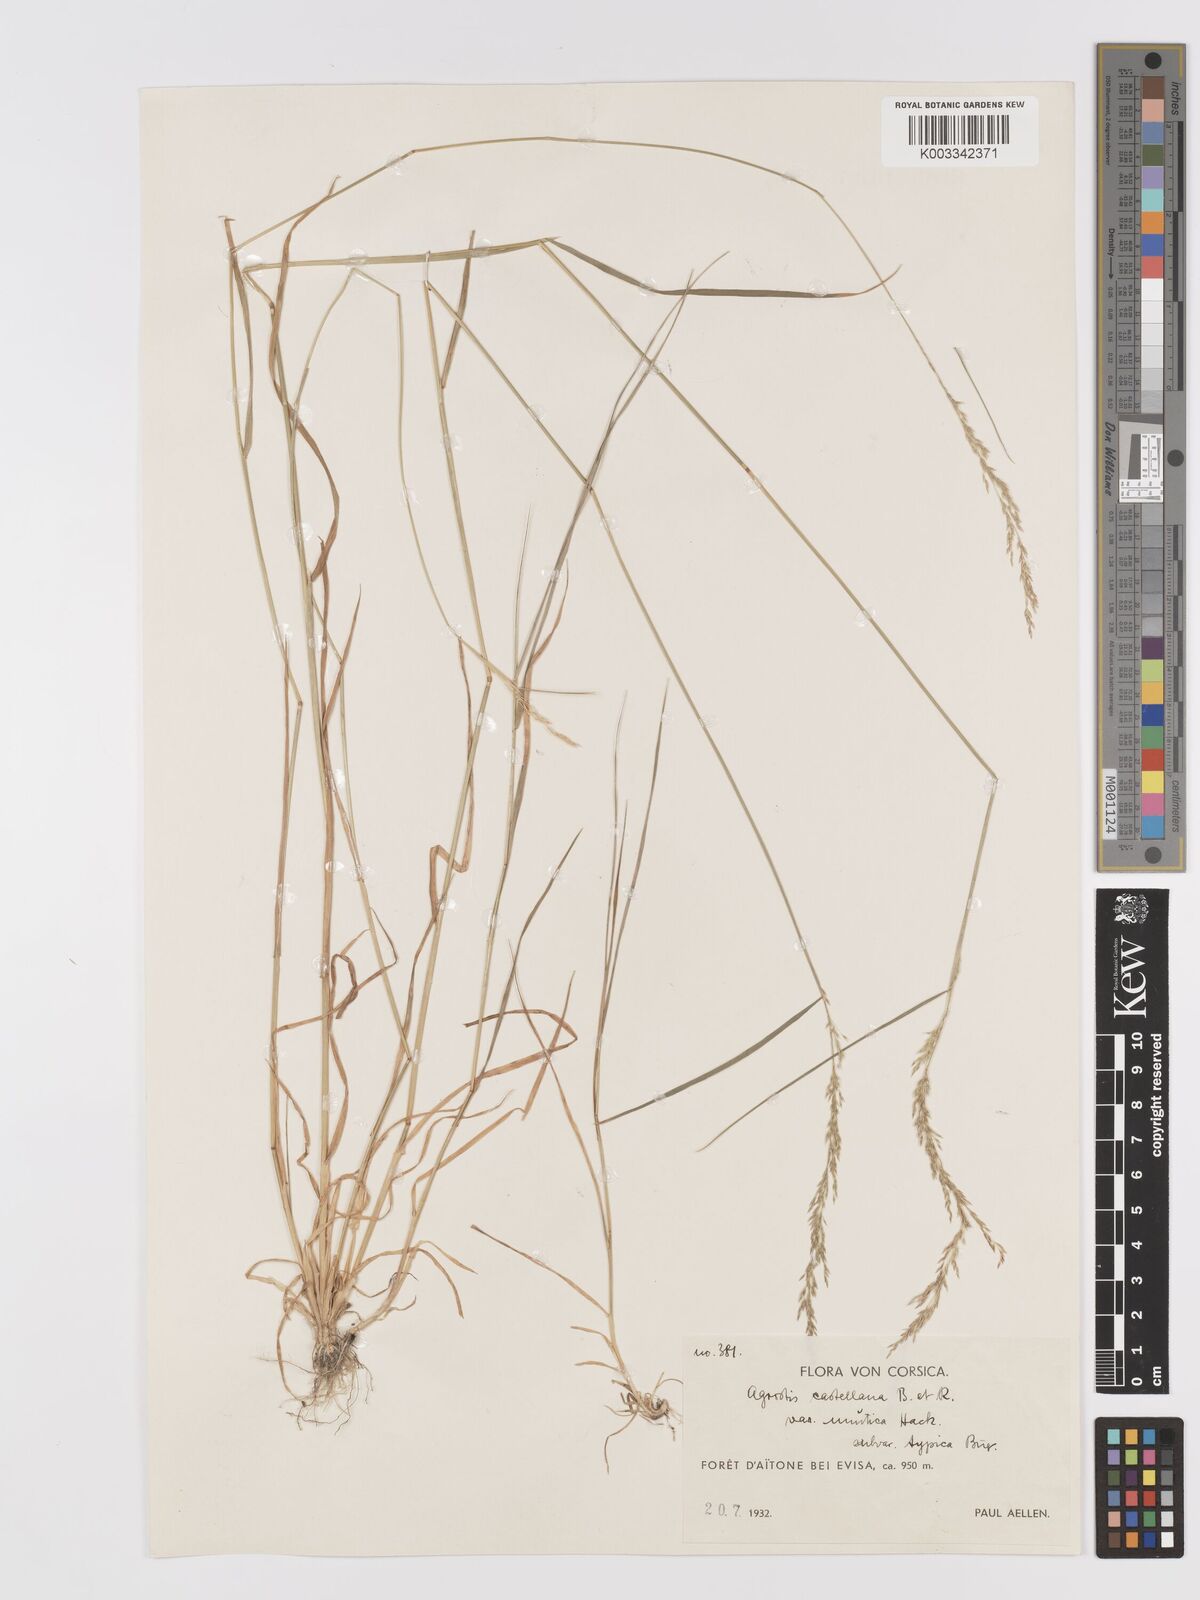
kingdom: Plantae
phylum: Tracheophyta
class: Liliopsida
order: Poales
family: Poaceae
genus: Agrostis
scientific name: Agrostis castellana
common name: Highland bent
